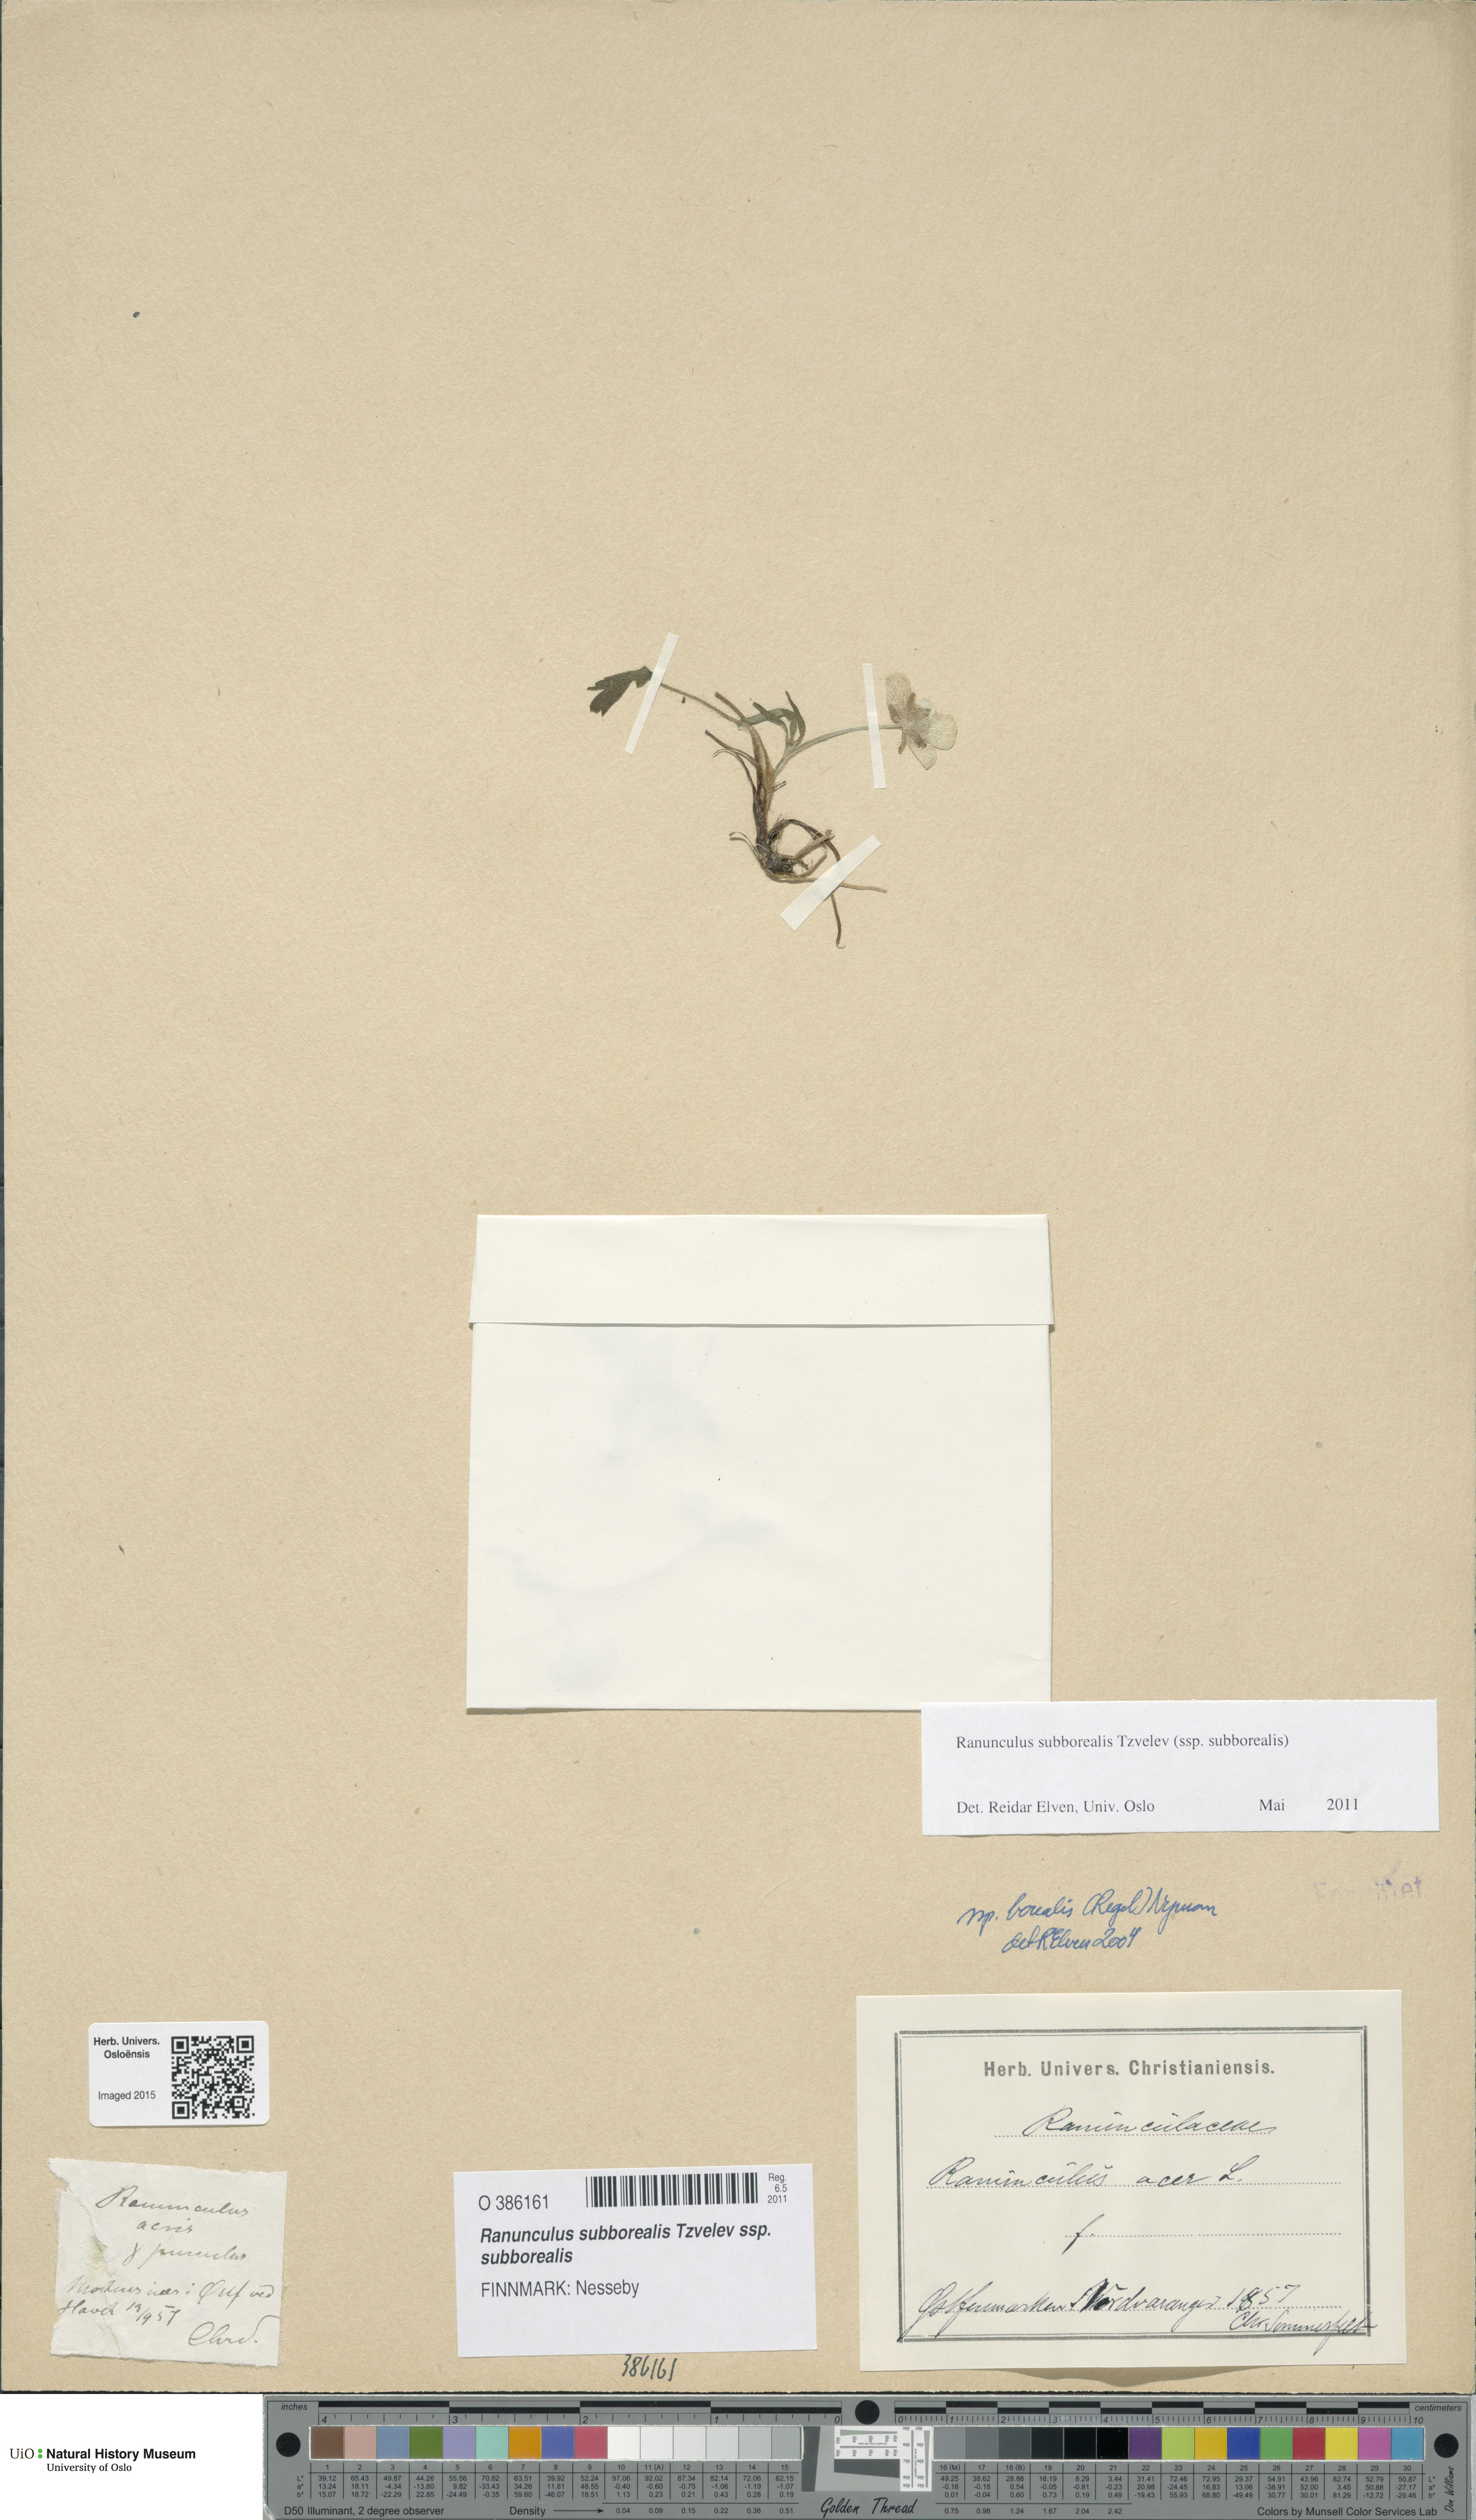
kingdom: Plantae
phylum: Tracheophyta
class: Magnoliopsida
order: Ranunculales
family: Ranunculaceae
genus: Ranunculus
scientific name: Ranunculus propinquus
